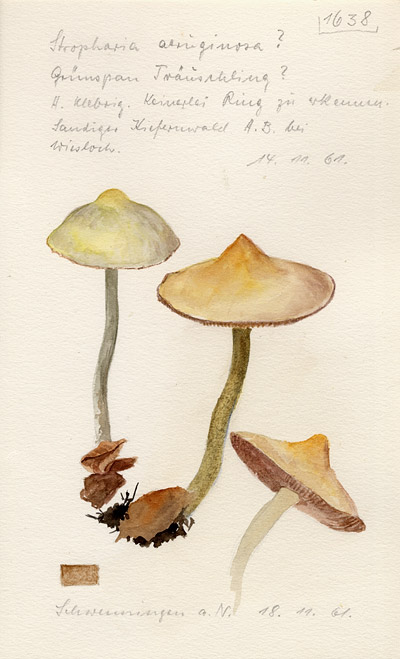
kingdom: Fungi
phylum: Basidiomycota
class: Agaricomycetes
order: Agaricales
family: Strophariaceae
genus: Stropharia
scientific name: Stropharia aeruginosa
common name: Verdigris roundhead
